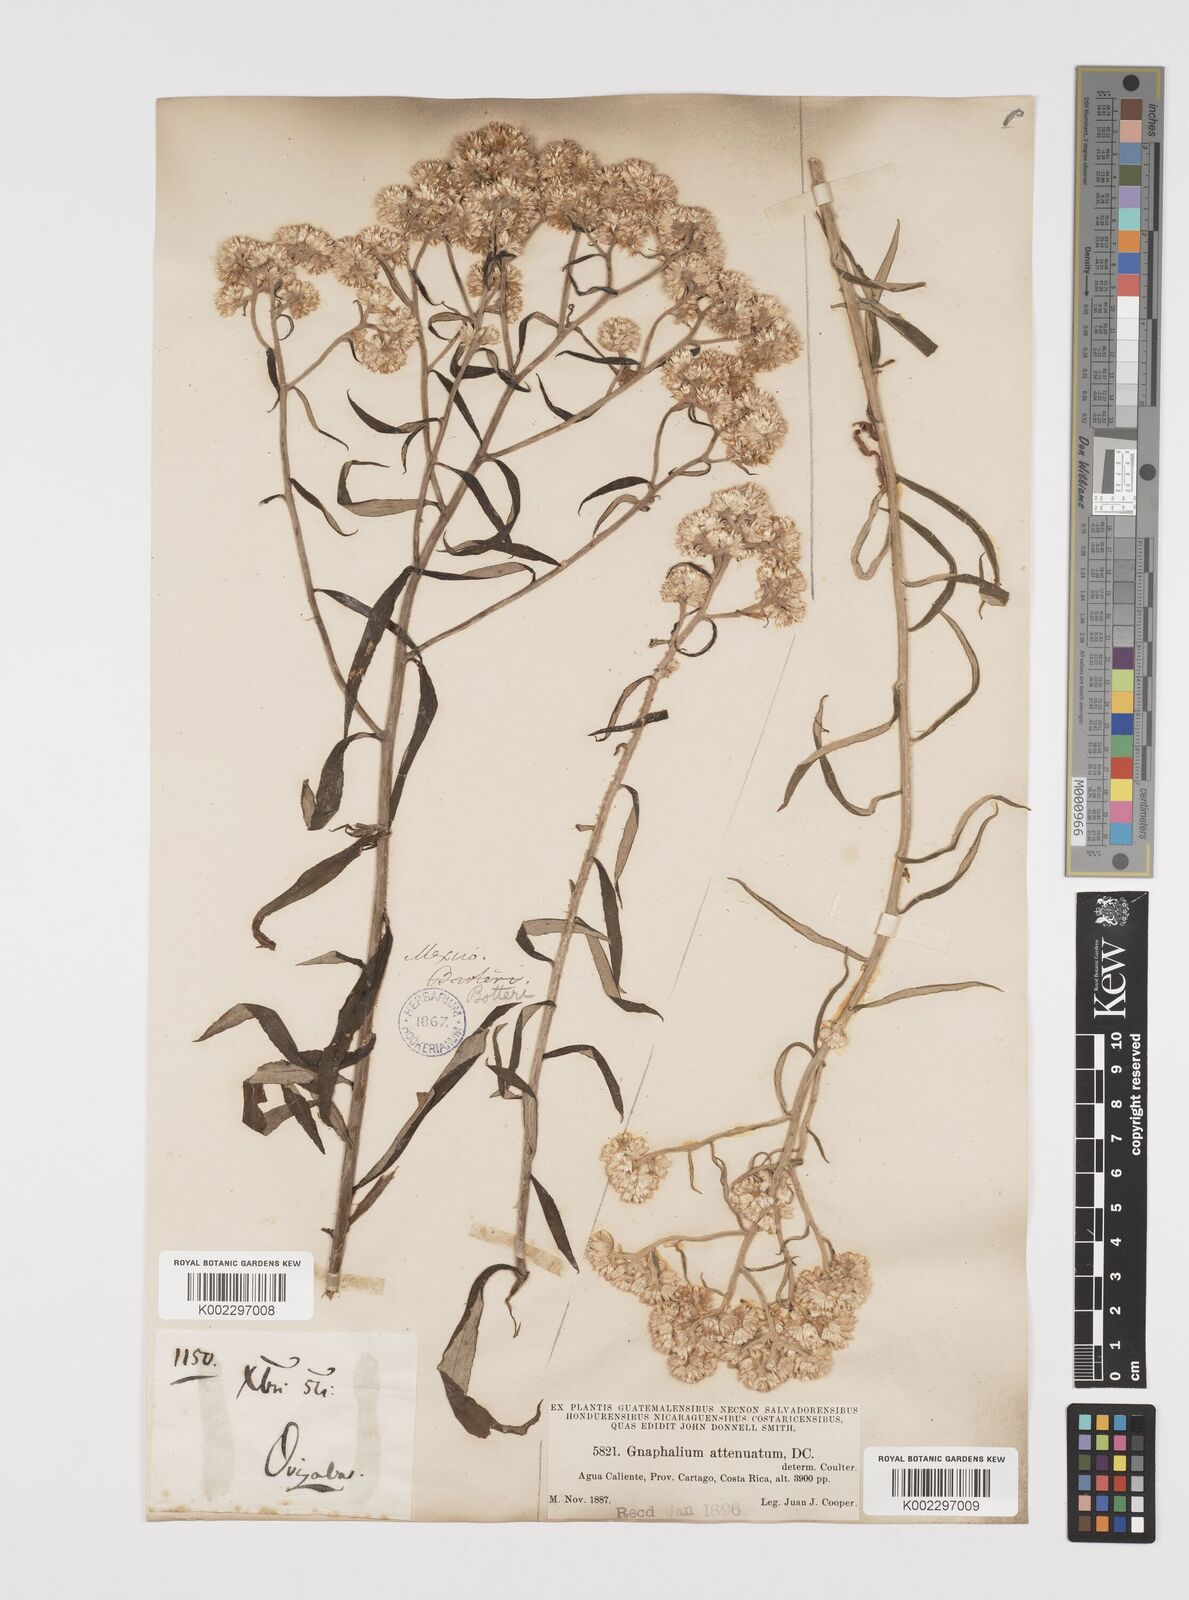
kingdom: Plantae
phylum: Tracheophyta
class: Magnoliopsida
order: Asterales
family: Asteraceae
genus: Pseudognaphalium
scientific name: Pseudognaphalium attenuatum
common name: Tapered cudweed
